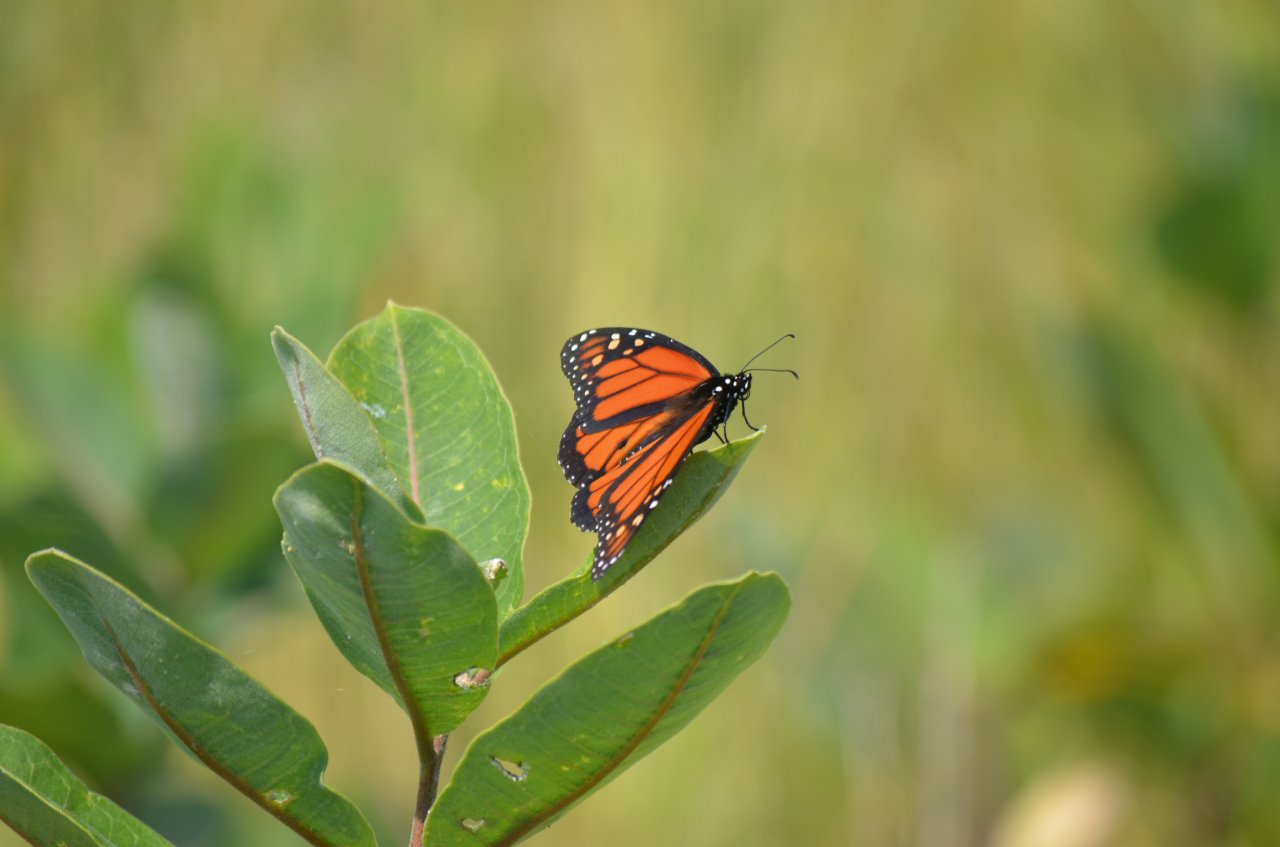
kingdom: Animalia
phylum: Arthropoda
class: Insecta
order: Lepidoptera
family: Nymphalidae
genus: Danaus
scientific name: Danaus plexippus
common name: Monarch
